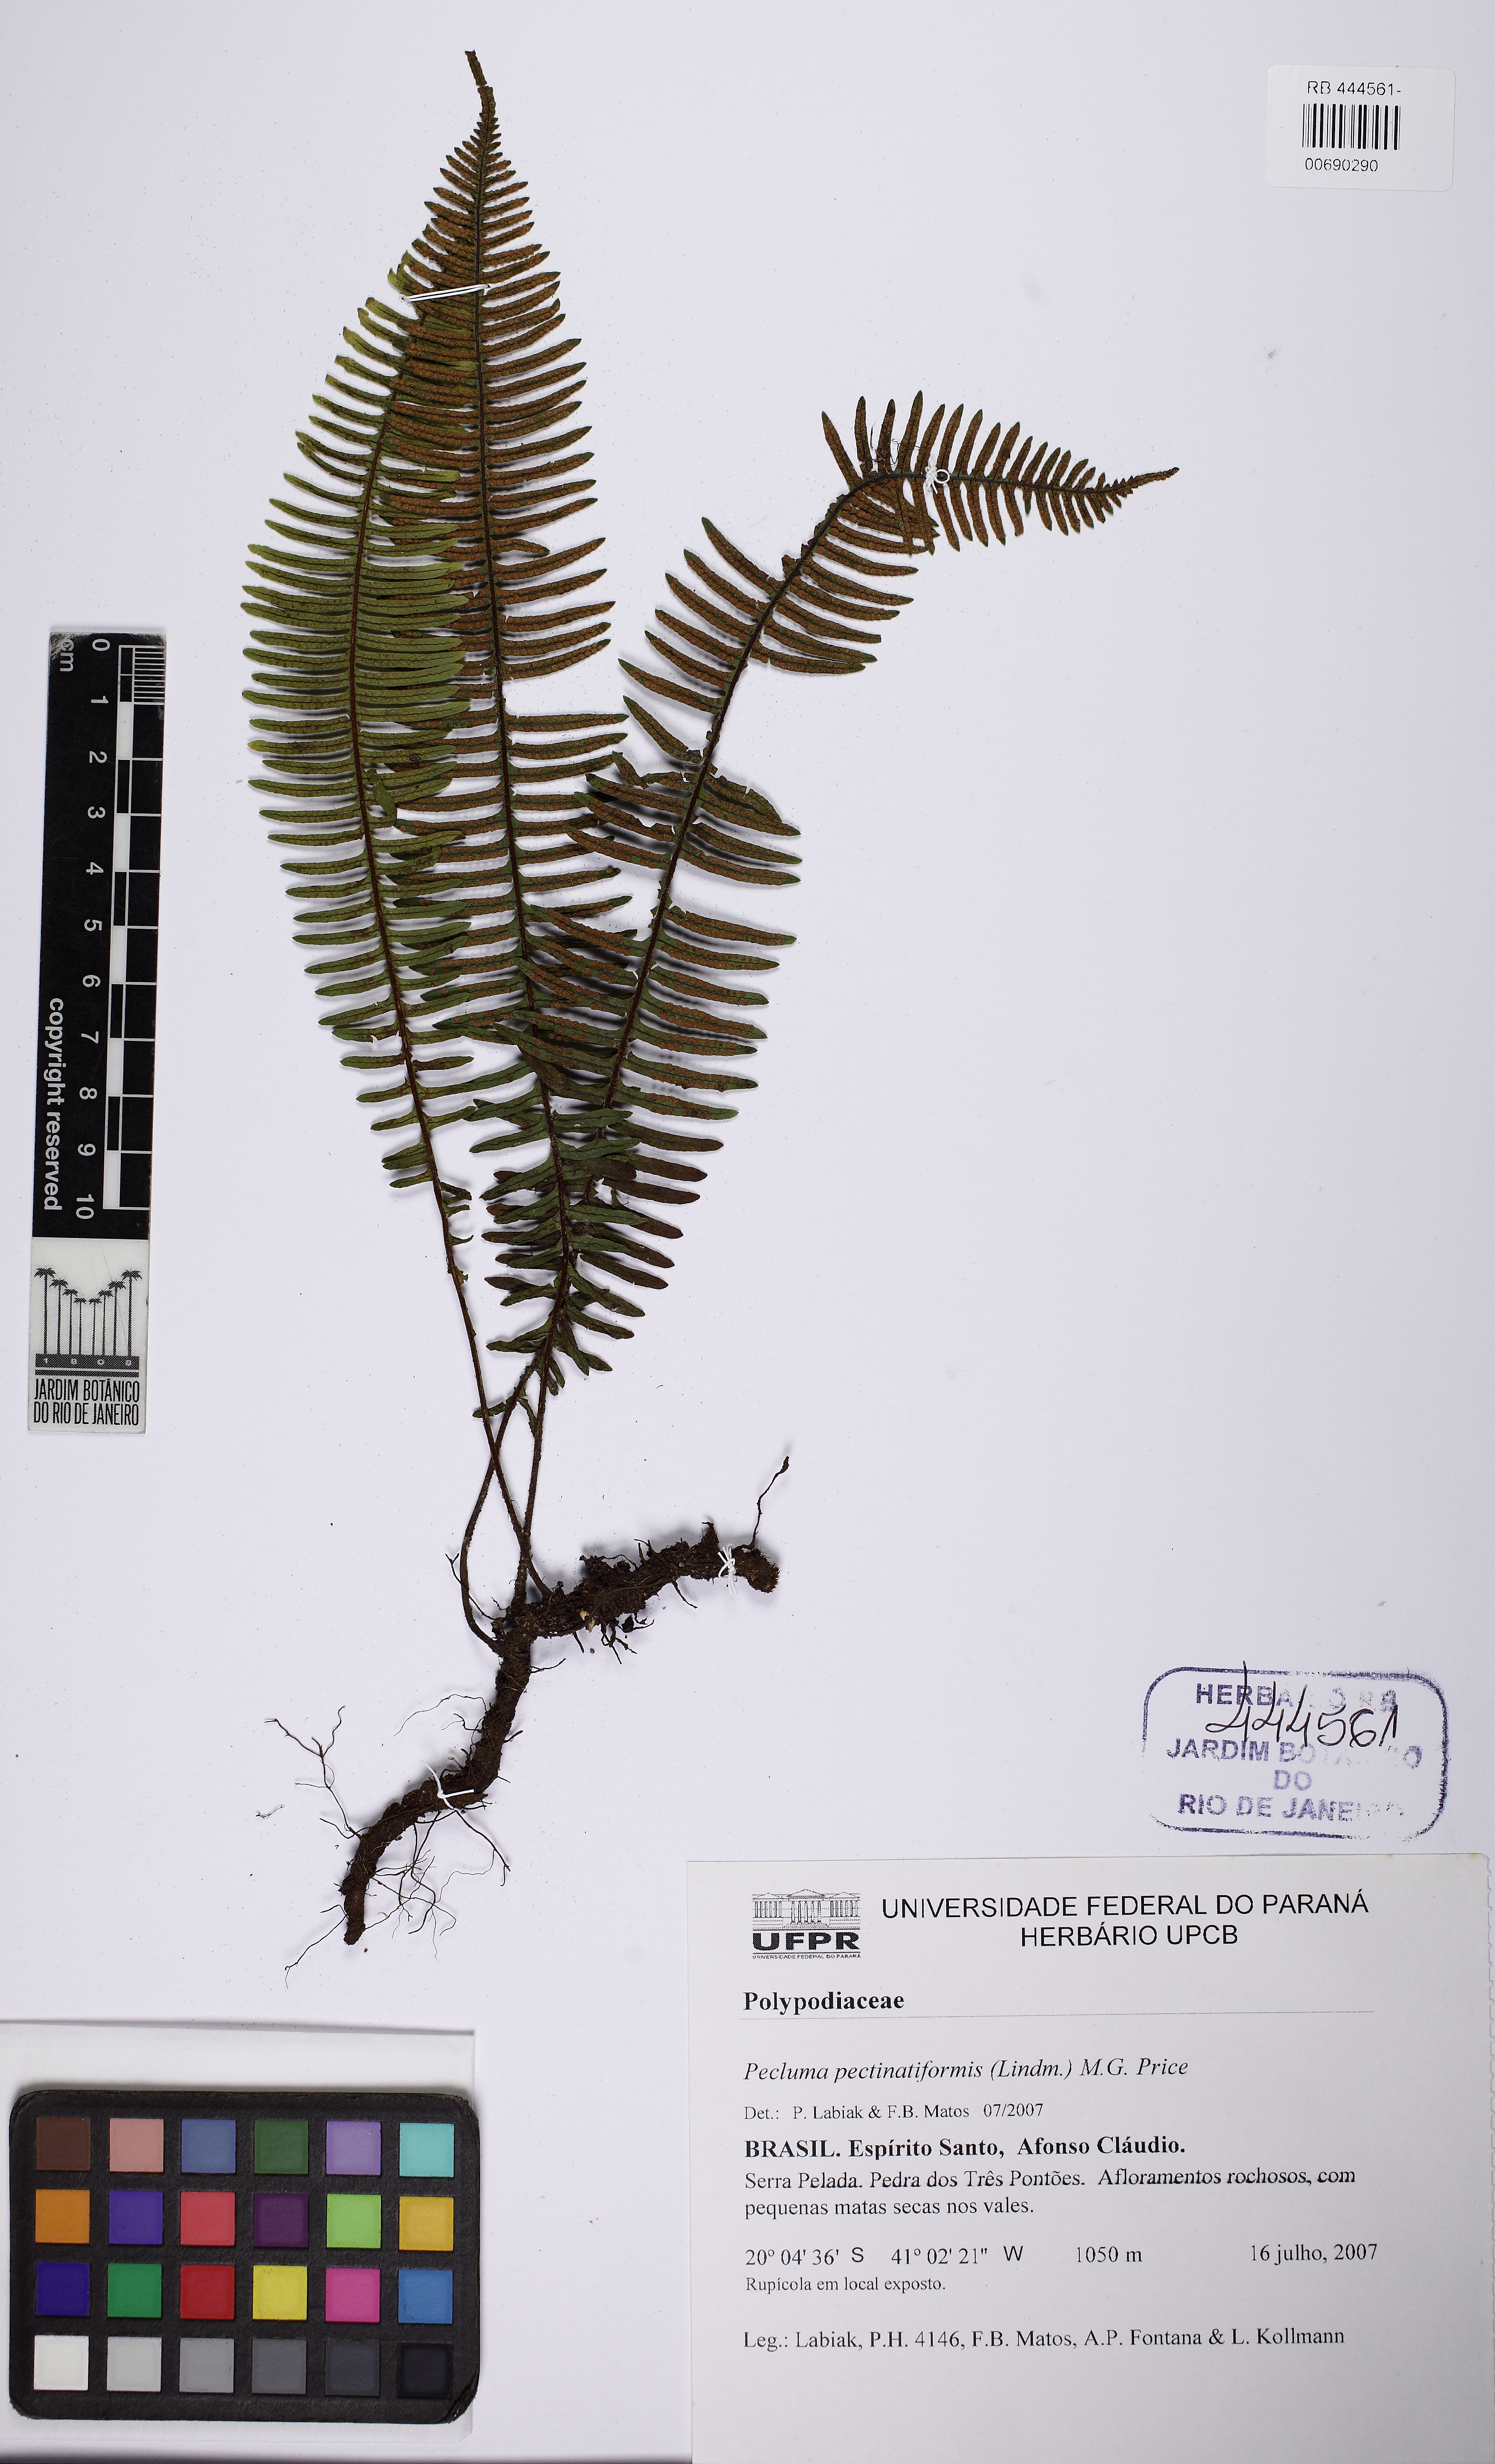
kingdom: Plantae
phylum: Tracheophyta
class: Polypodiopsida
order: Polypodiales
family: Polypodiaceae
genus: Pecluma
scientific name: Pecluma pectinatiformis
